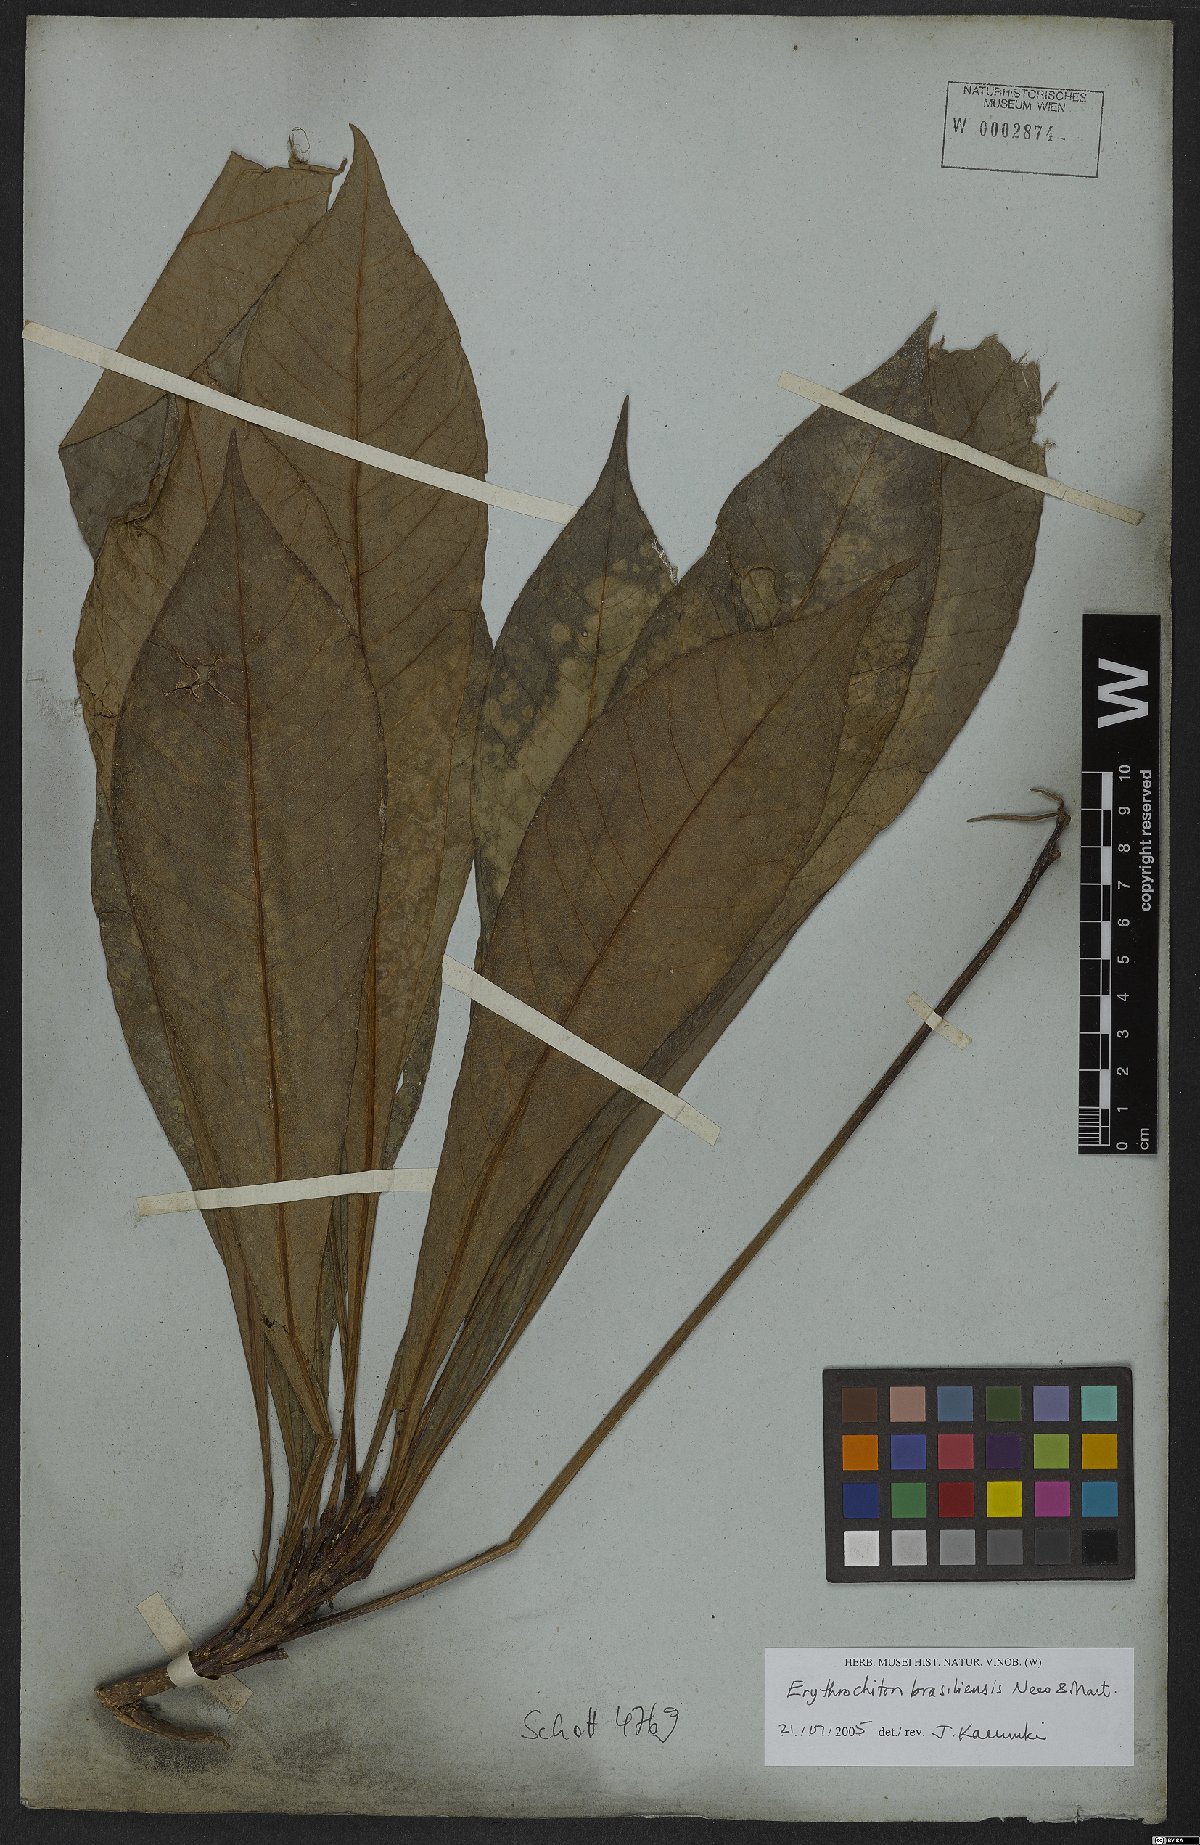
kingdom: Plantae
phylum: Tracheophyta
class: Magnoliopsida
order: Sapindales
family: Rutaceae
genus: Erythrochiton
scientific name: Erythrochiton brasiliensis
